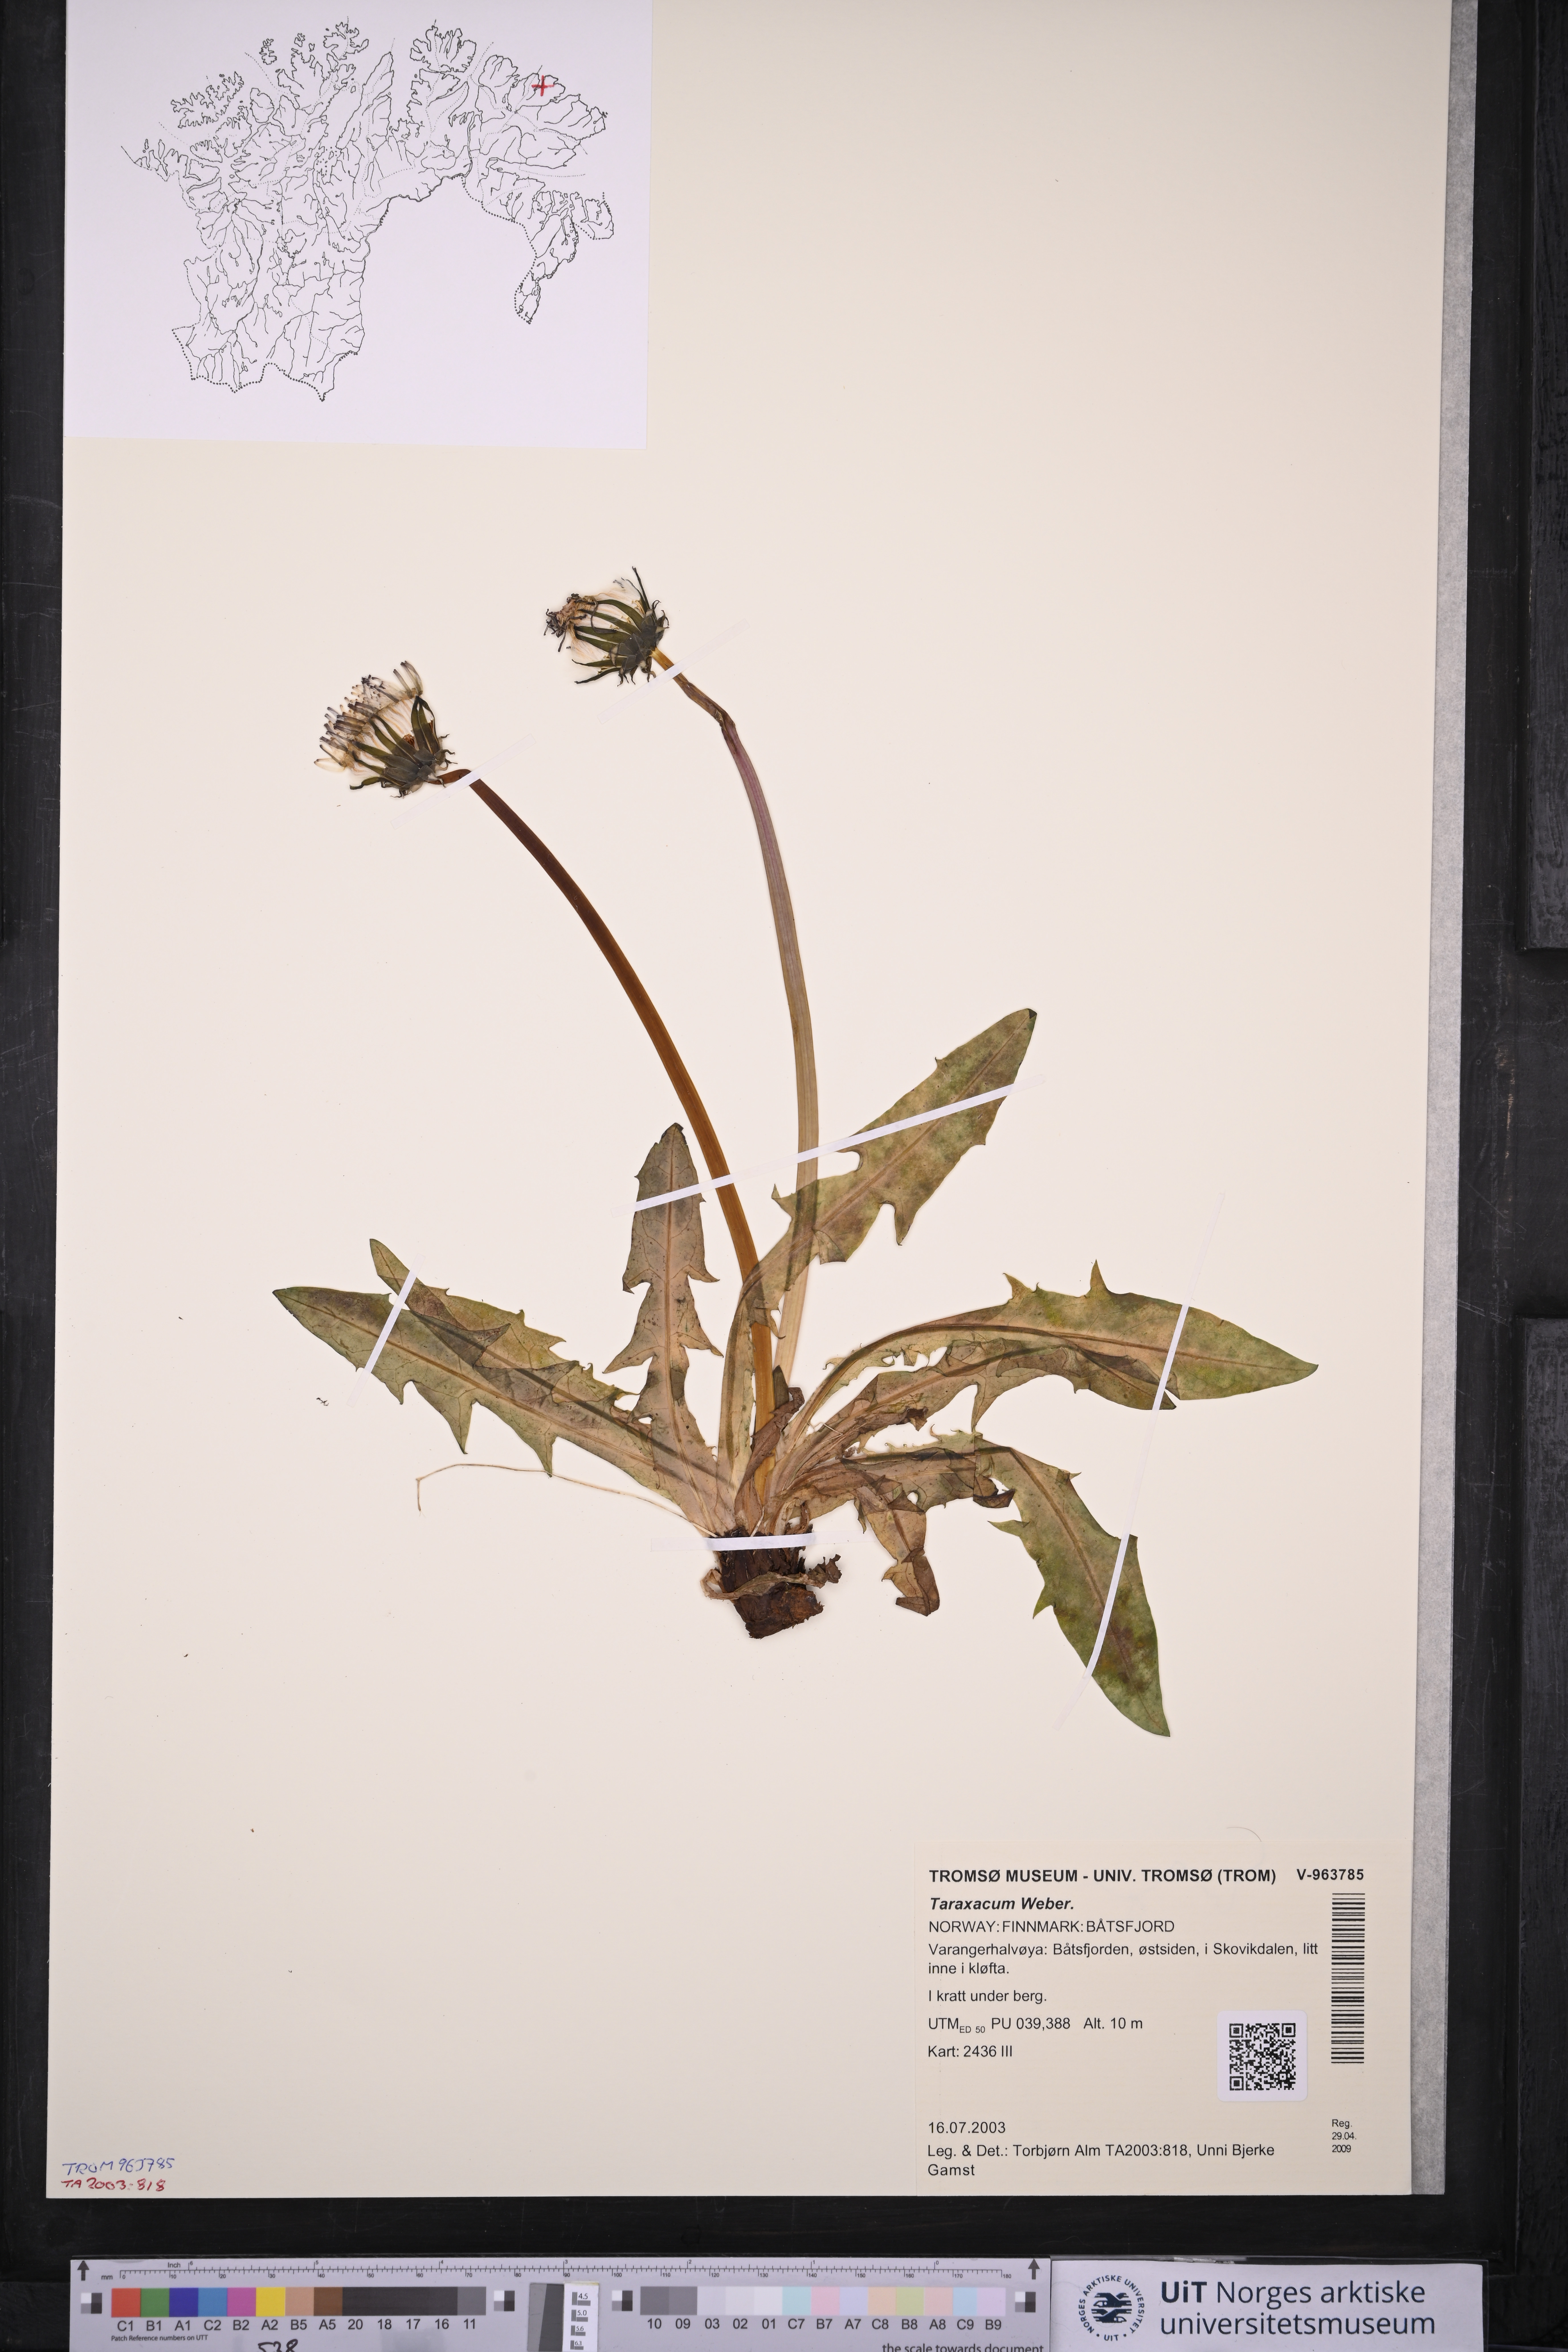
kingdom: Plantae
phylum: Tracheophyta
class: Magnoliopsida
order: Asterales
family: Asteraceae
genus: Taraxacum
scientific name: Taraxacum
